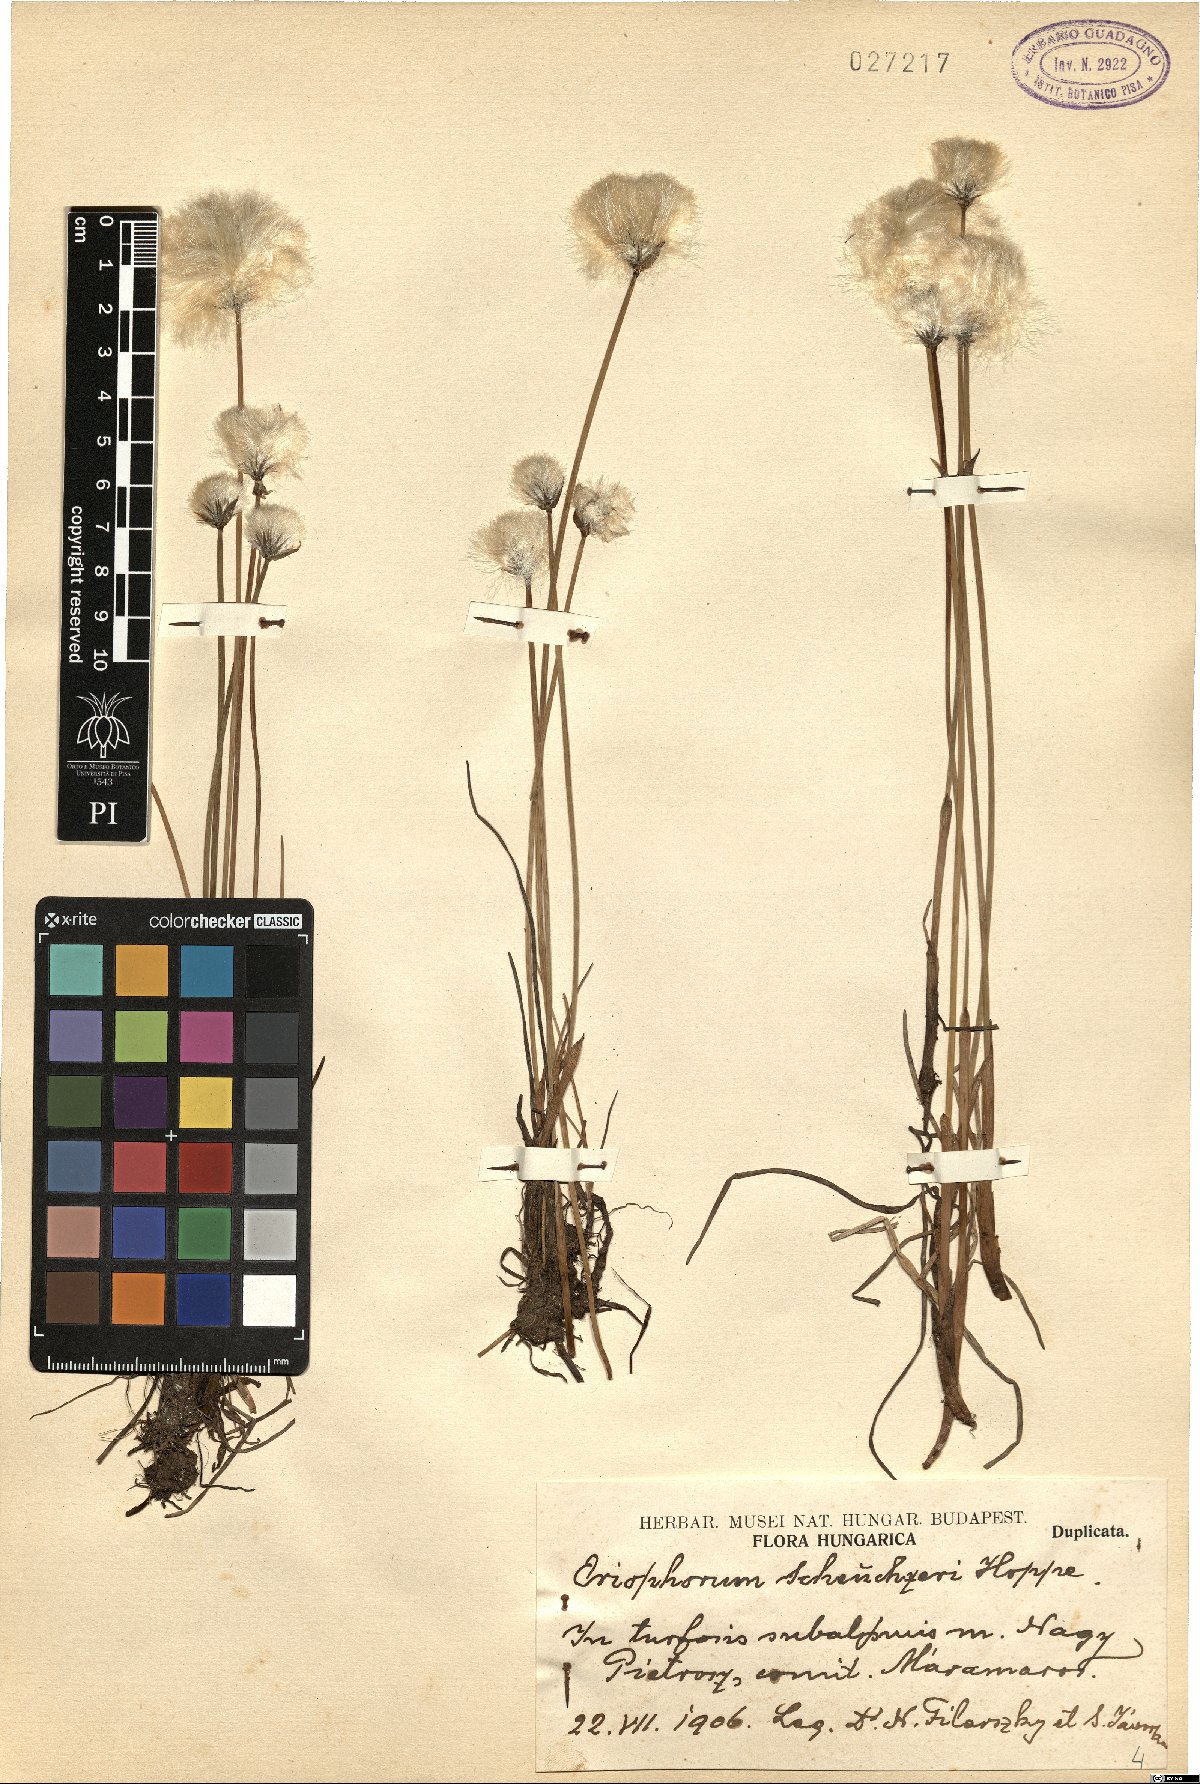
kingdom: Plantae
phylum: Tracheophyta
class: Liliopsida
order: Poales
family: Cyperaceae
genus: Eriophorum
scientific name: Eriophorum scheuchzeri
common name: Scheuchzer's cottongrass
